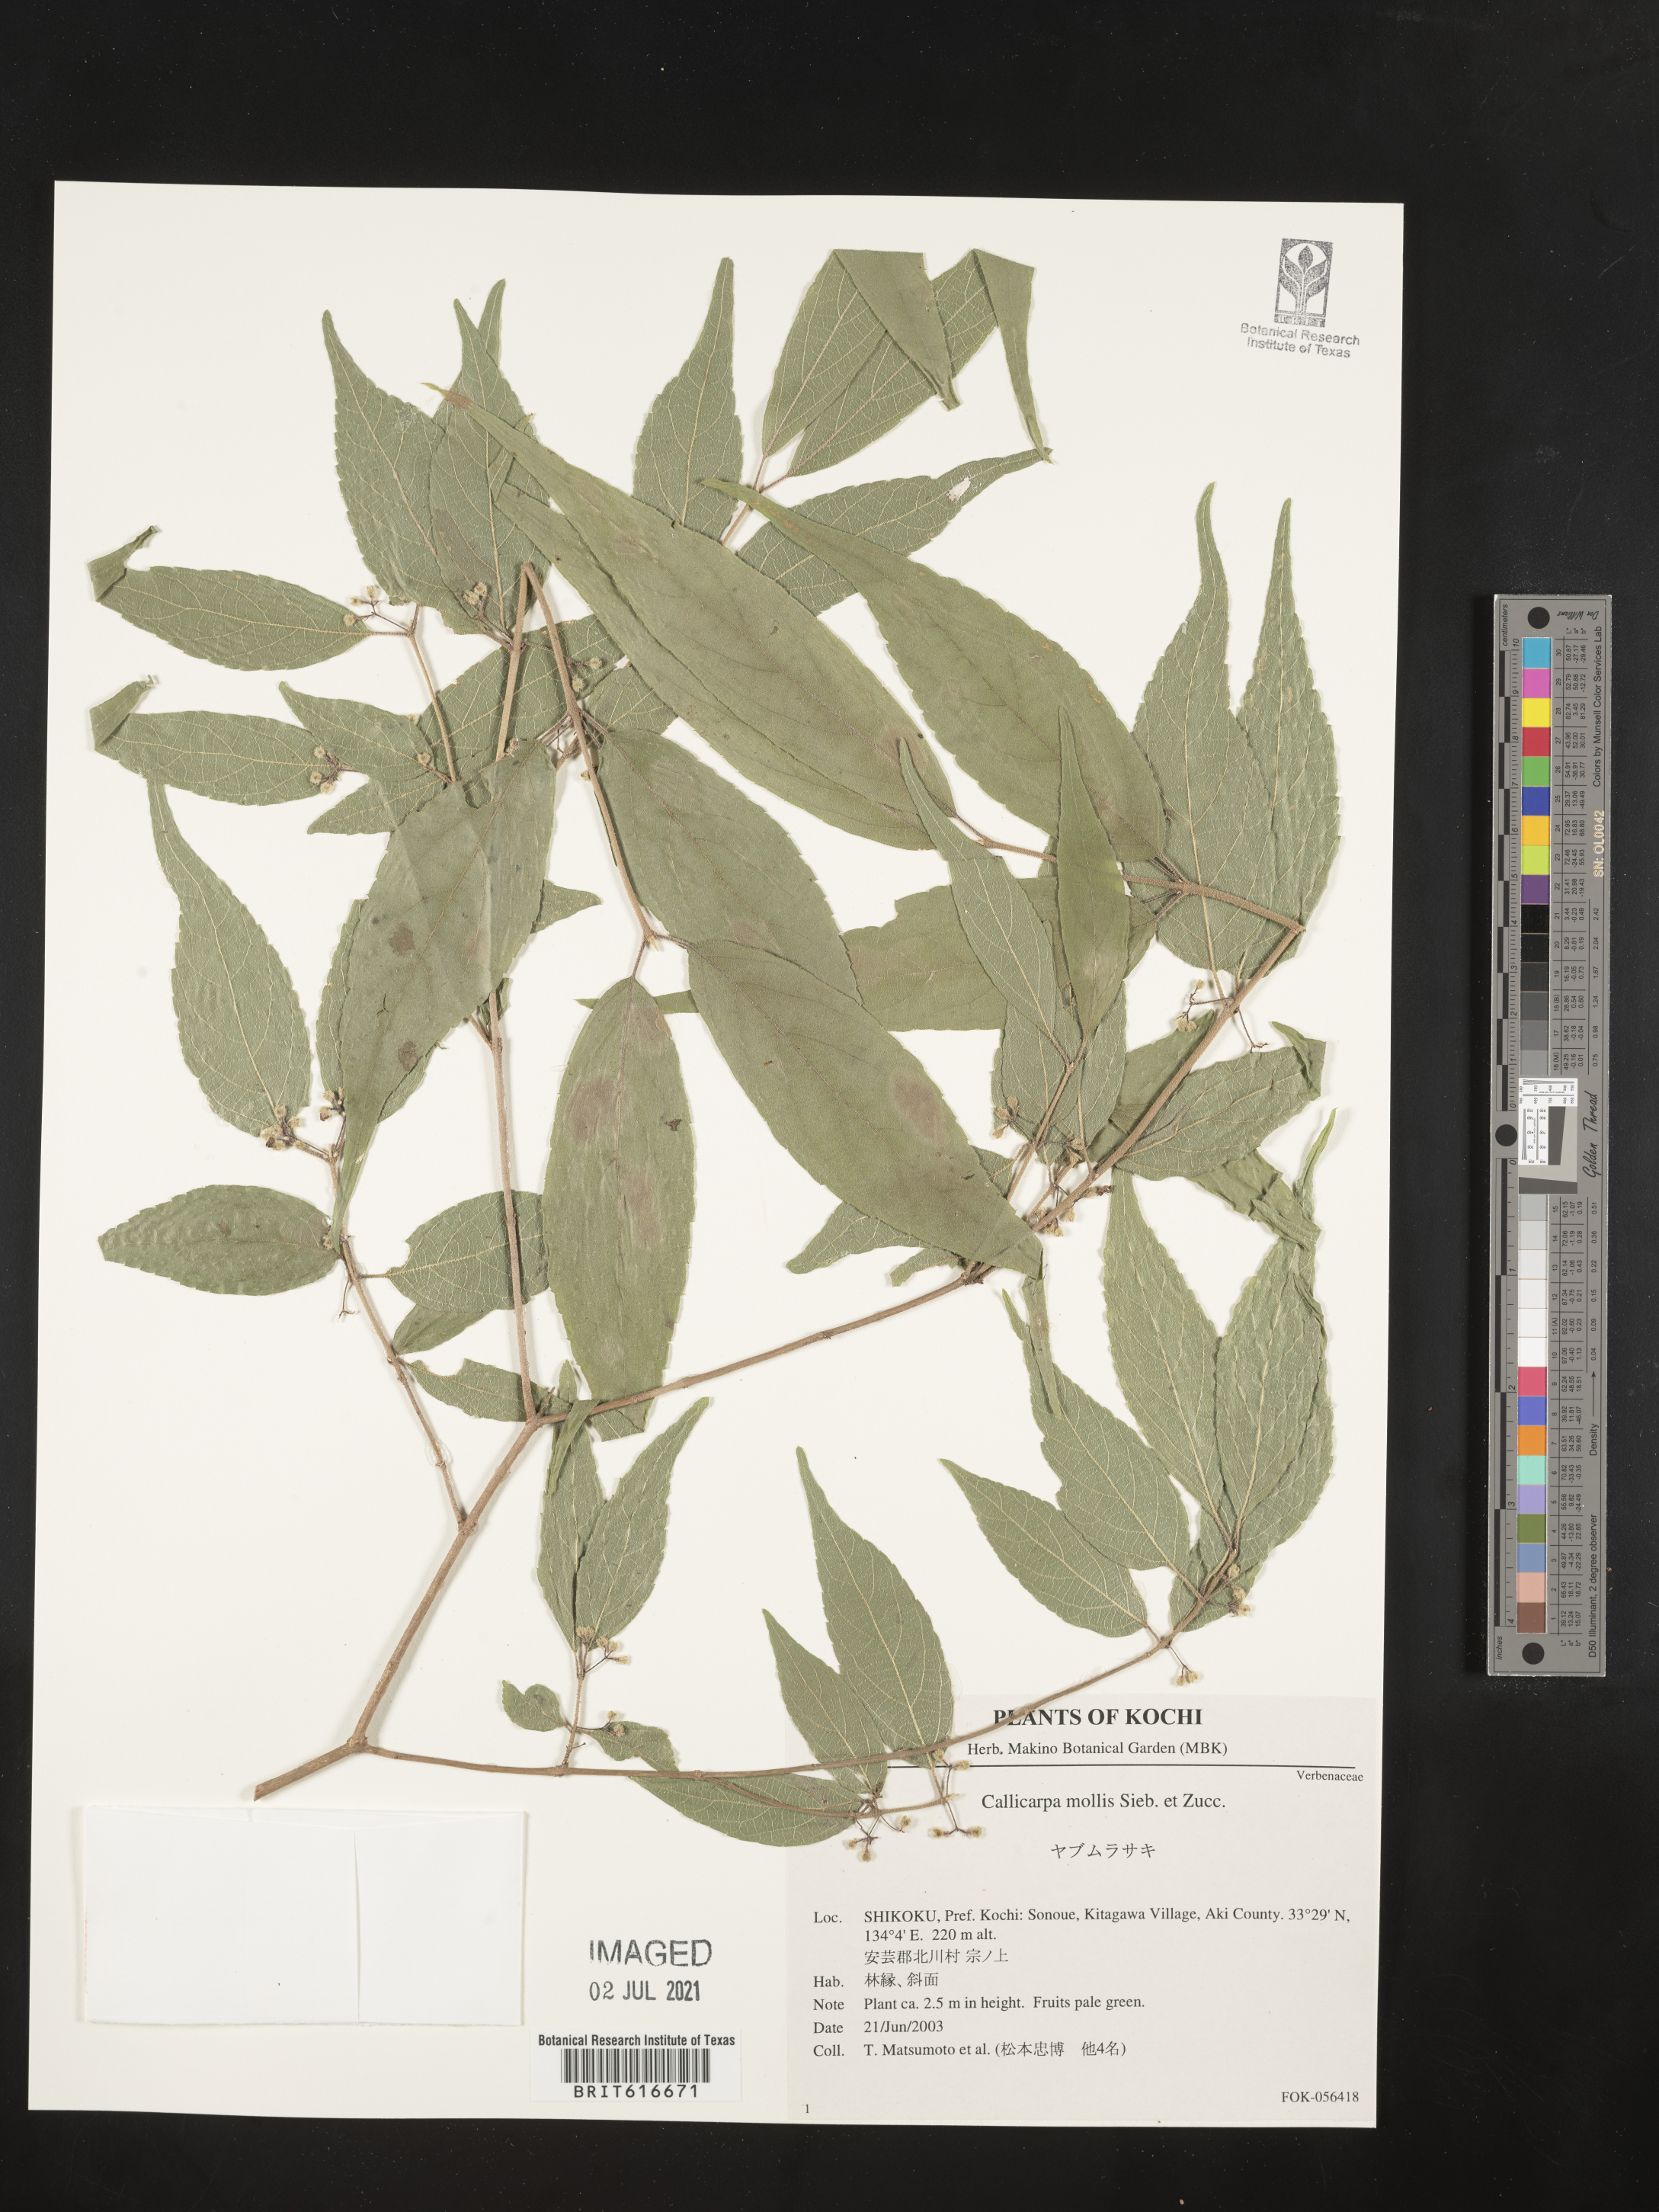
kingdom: Plantae
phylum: Tracheophyta
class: Magnoliopsida
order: Lamiales
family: Lamiaceae
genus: Callicarpa
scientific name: Callicarpa mollis
